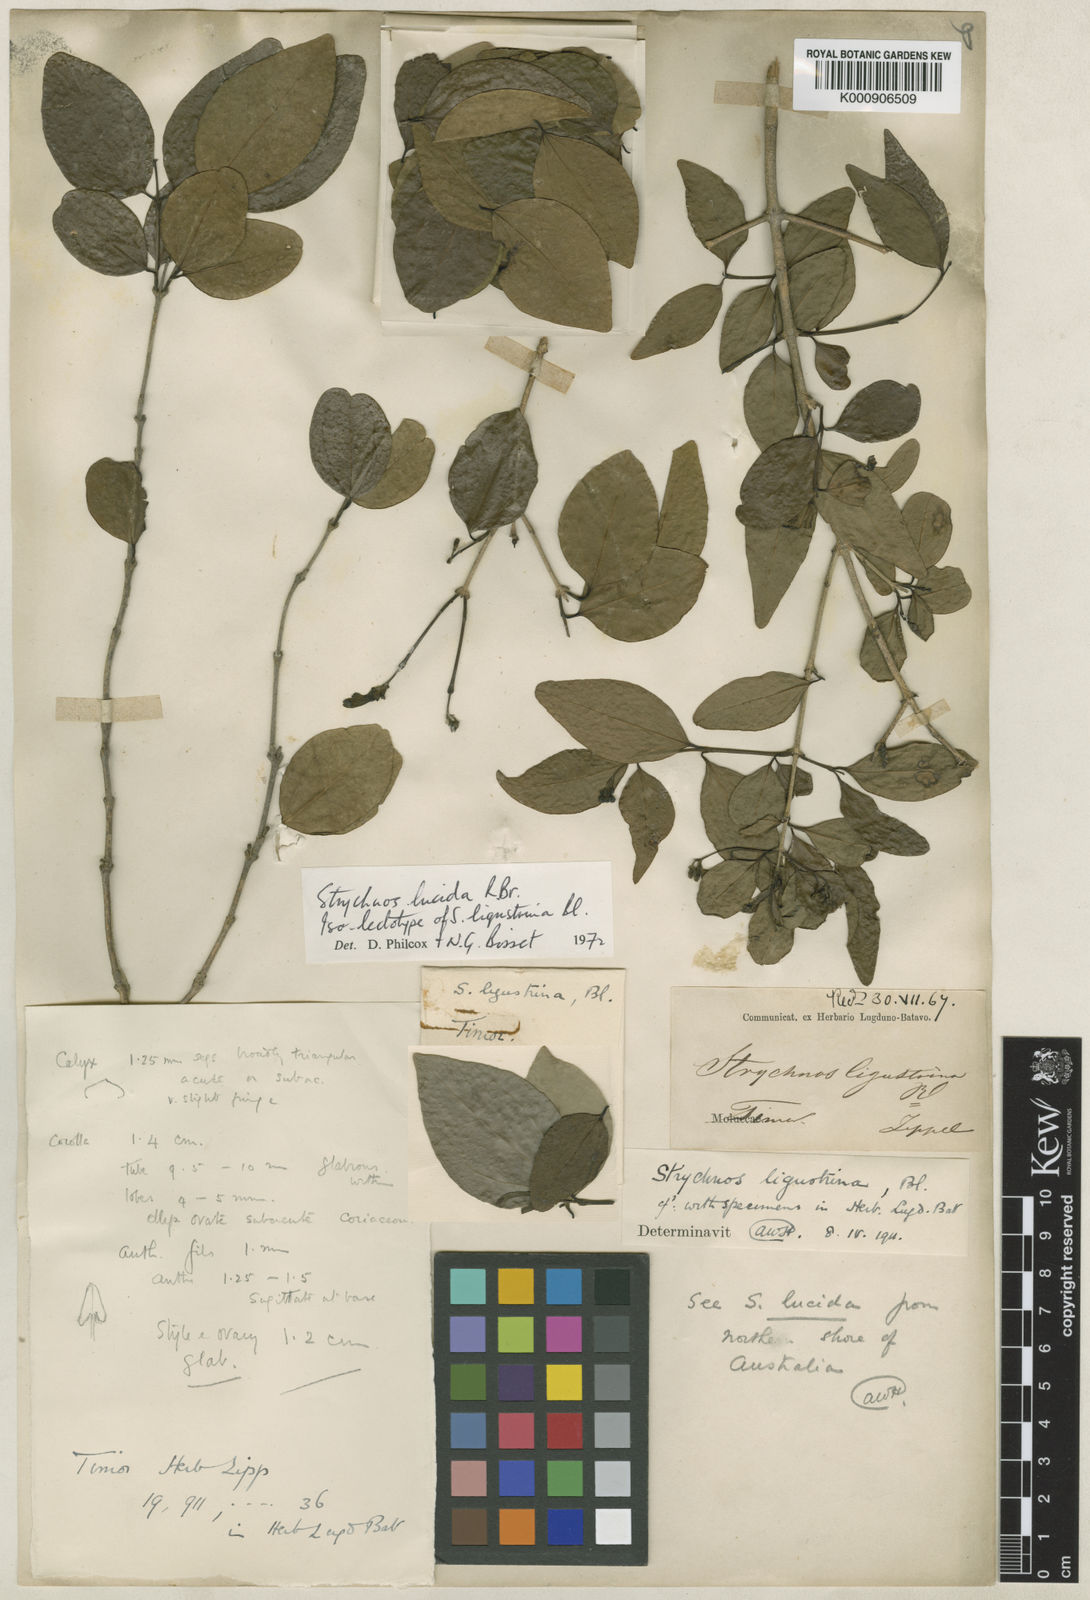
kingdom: Plantae
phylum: Tracheophyta
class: Magnoliopsida
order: Gentianales
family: Loganiaceae
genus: Strychnos
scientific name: Strychnos lucida
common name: Strychninebush
